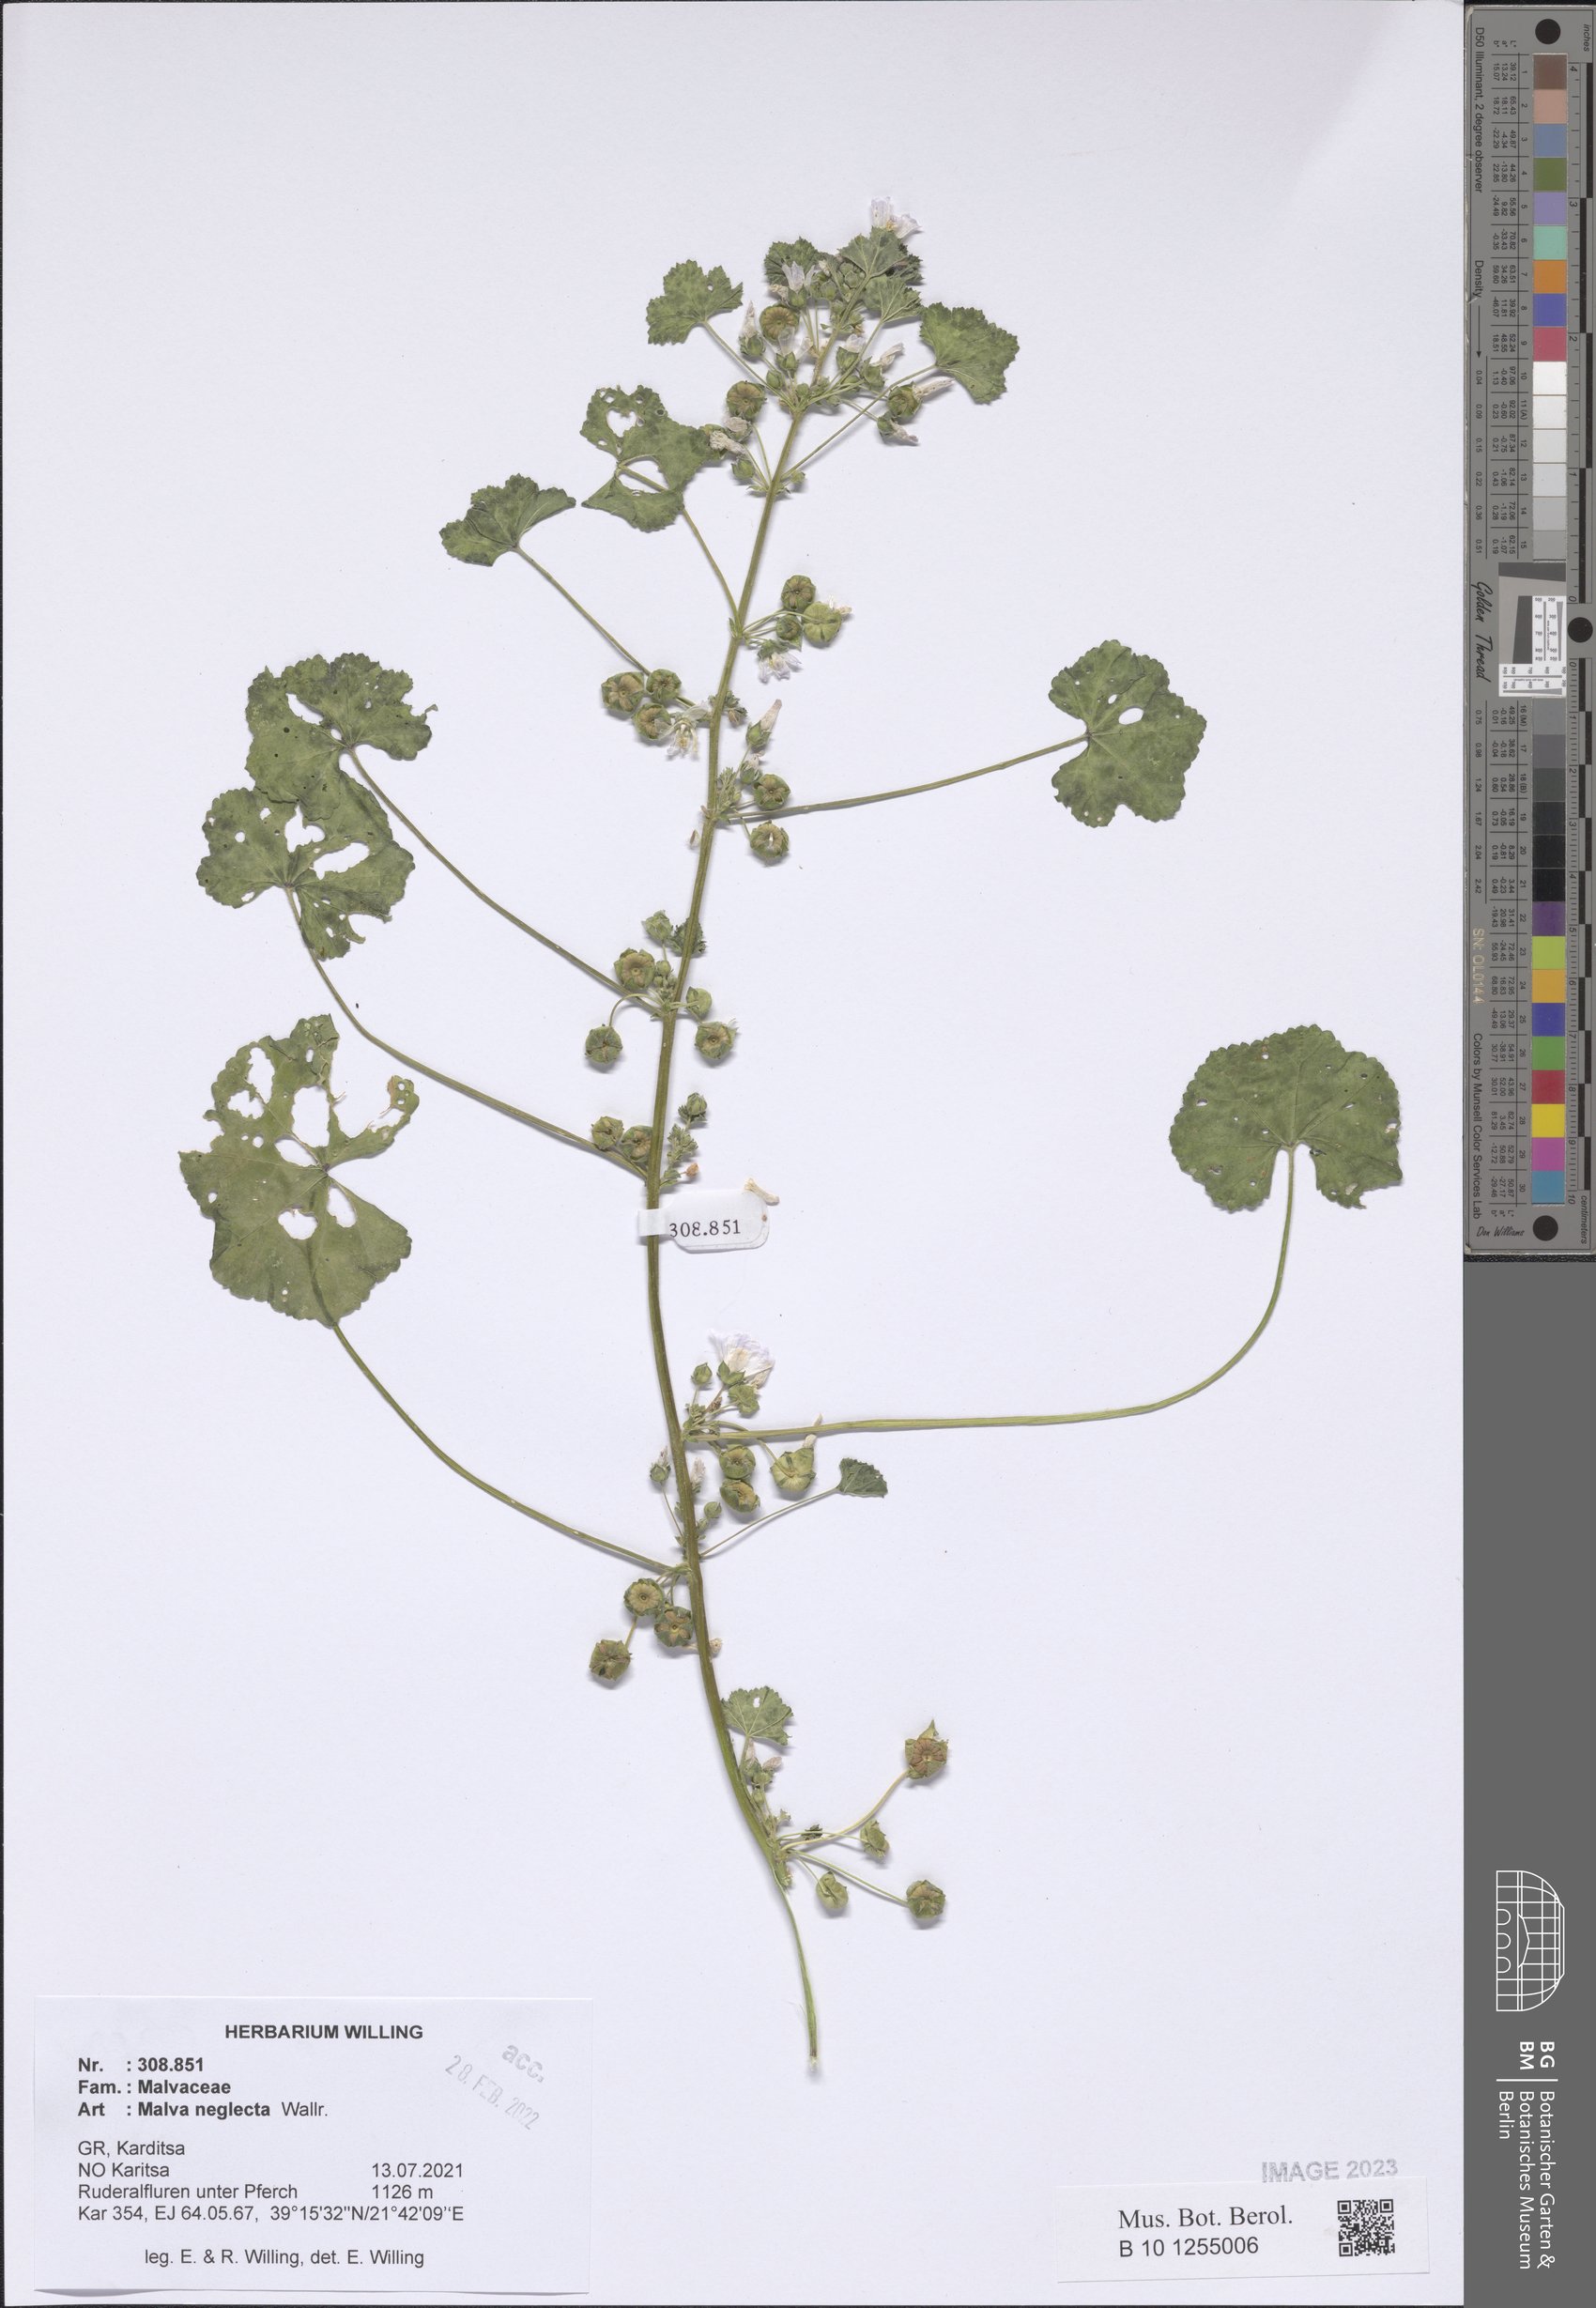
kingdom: Plantae
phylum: Tracheophyta
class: Magnoliopsida
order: Malvales
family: Malvaceae
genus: Malva
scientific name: Malva neglecta
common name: Common mallow
